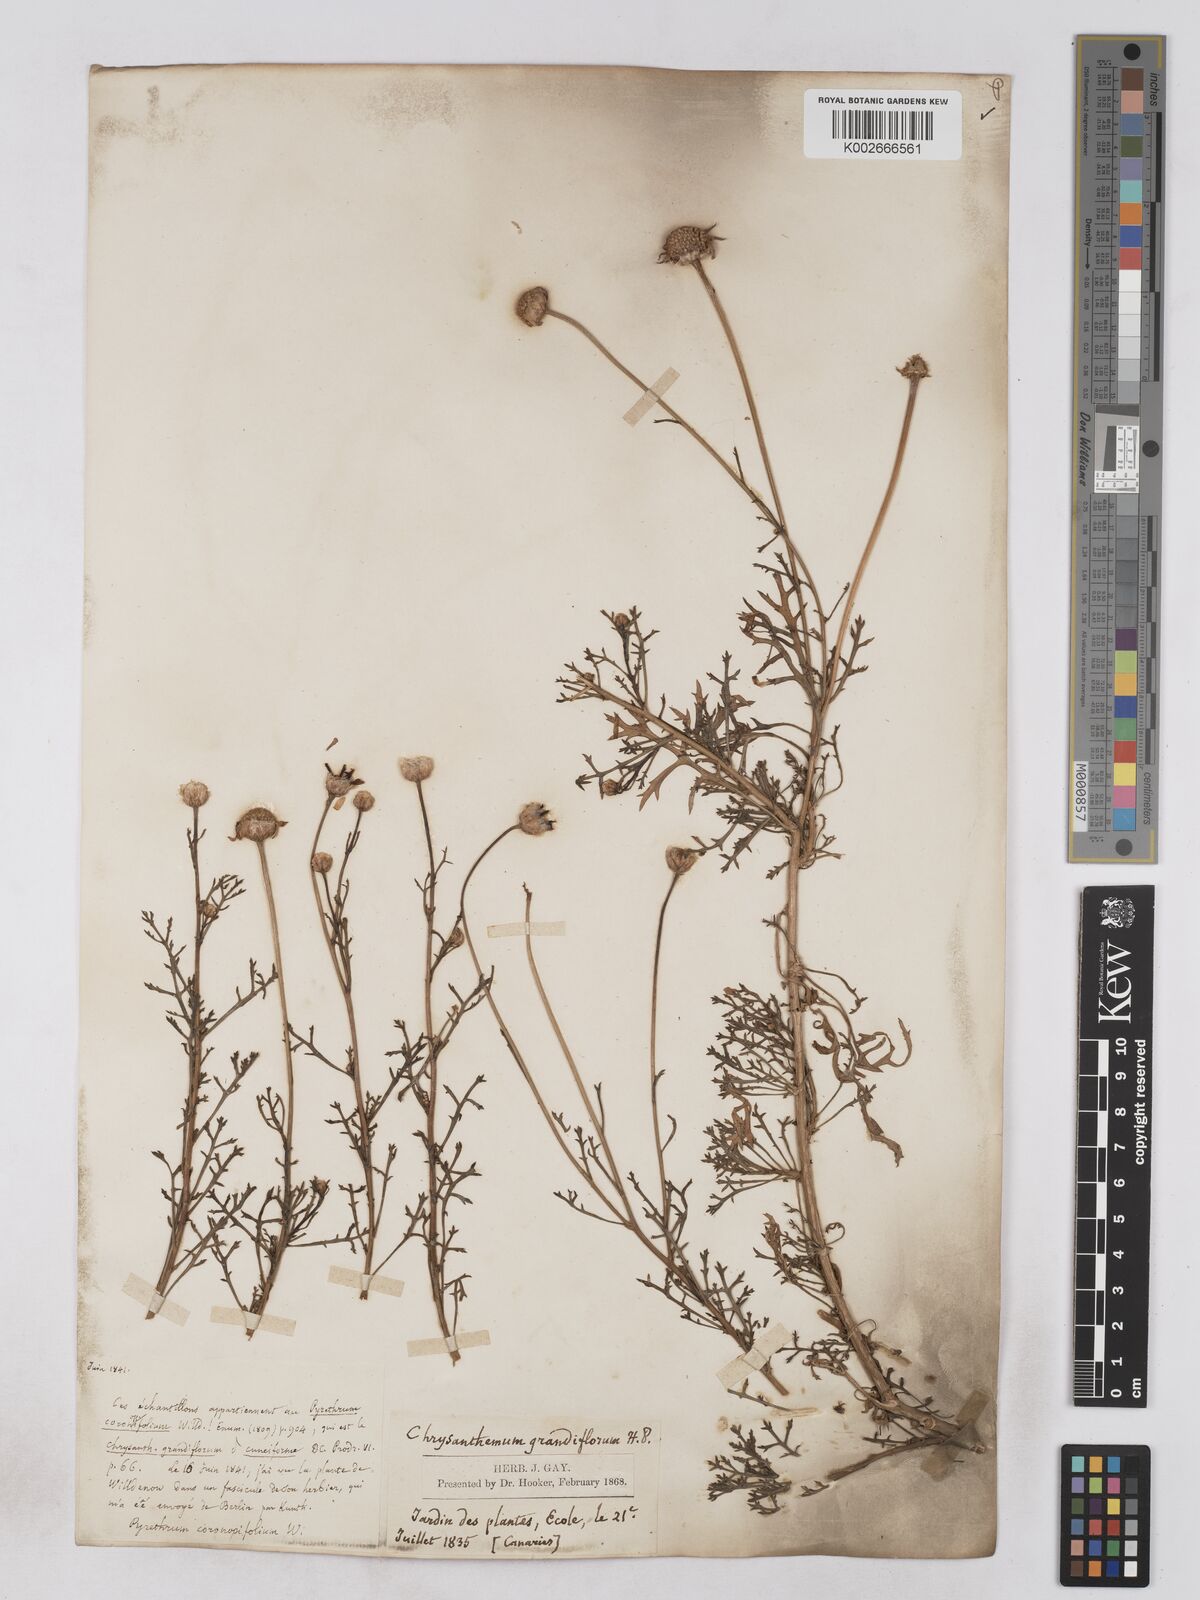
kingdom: Plantae
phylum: Tracheophyta
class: Magnoliopsida
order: Asterales
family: Asteraceae
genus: Argyranthemum
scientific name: Argyranthemum frutescens
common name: Paris daisy
